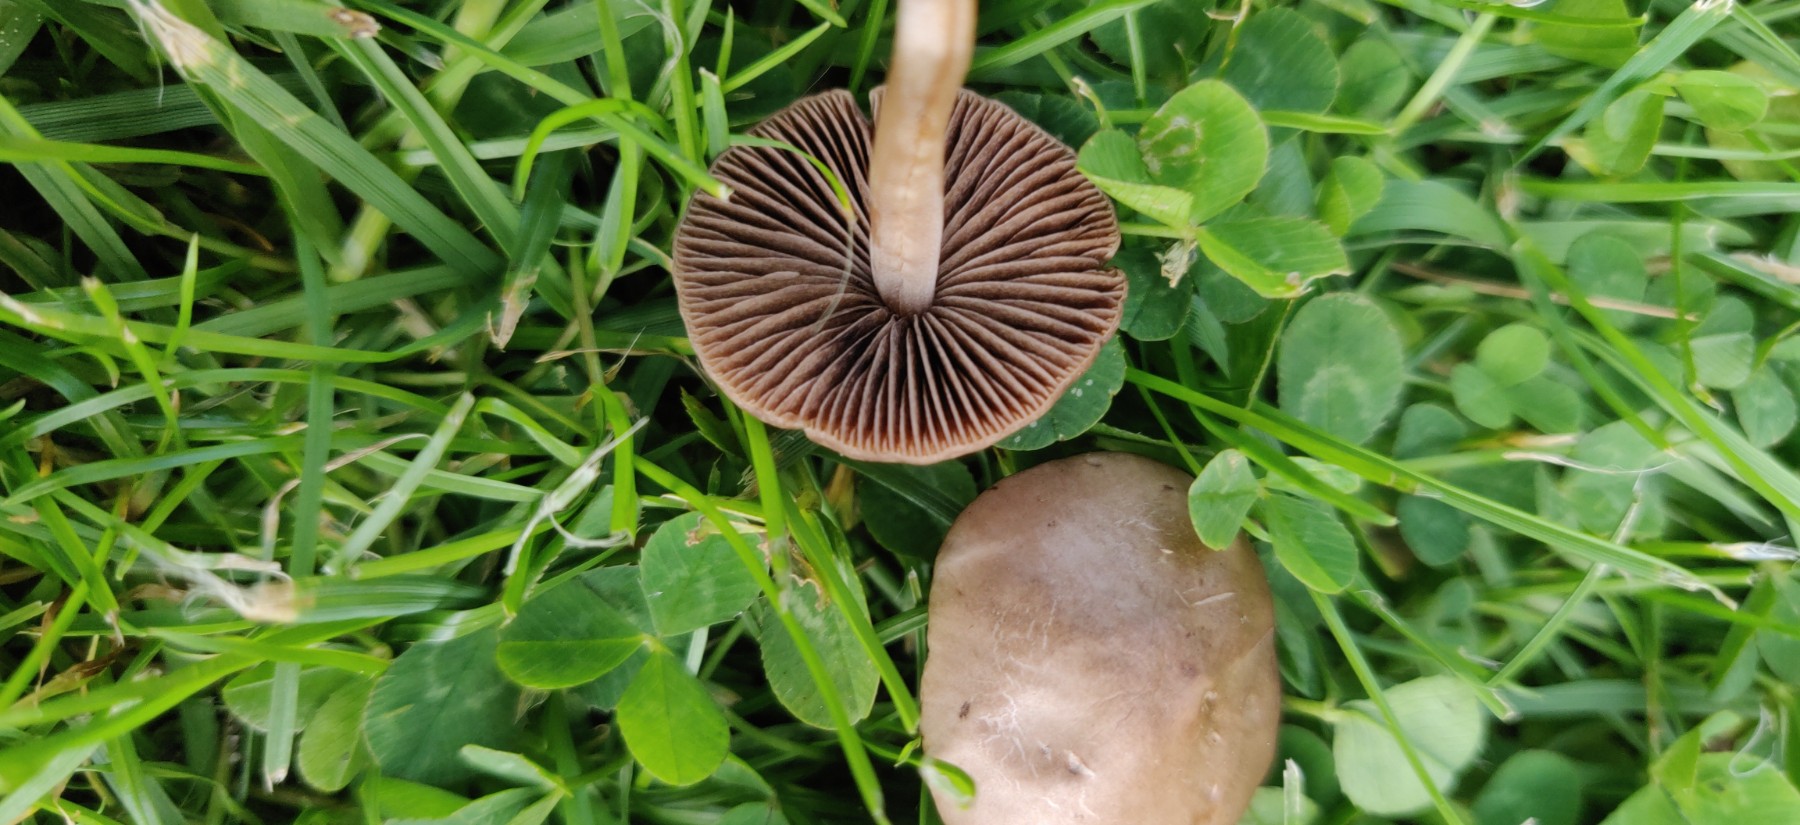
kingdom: Fungi
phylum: Basidiomycota
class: Agaricomycetes
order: Agaricales
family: Bolbitiaceae
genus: Panaeolina
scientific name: Panaeolina foenisecii
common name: høslætsvamp
